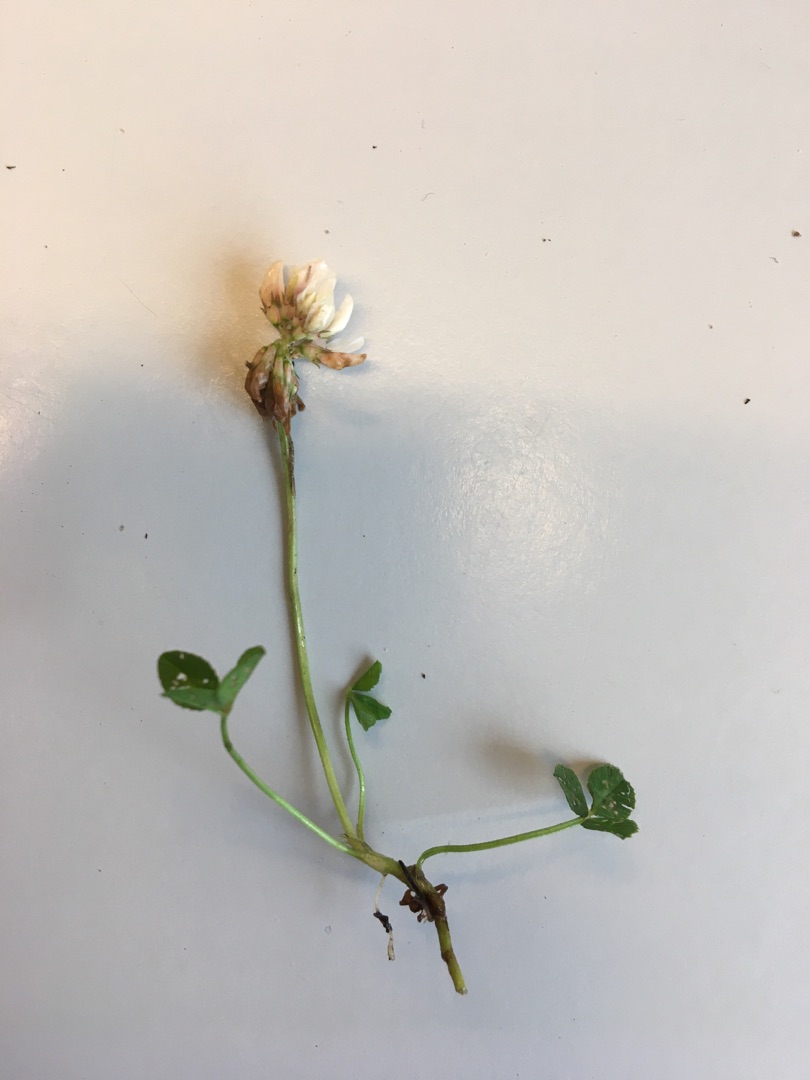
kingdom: Plantae
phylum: Tracheophyta
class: Magnoliopsida
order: Fabales
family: Fabaceae
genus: Trifolium
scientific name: Trifolium repens
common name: Hvid-kløver
